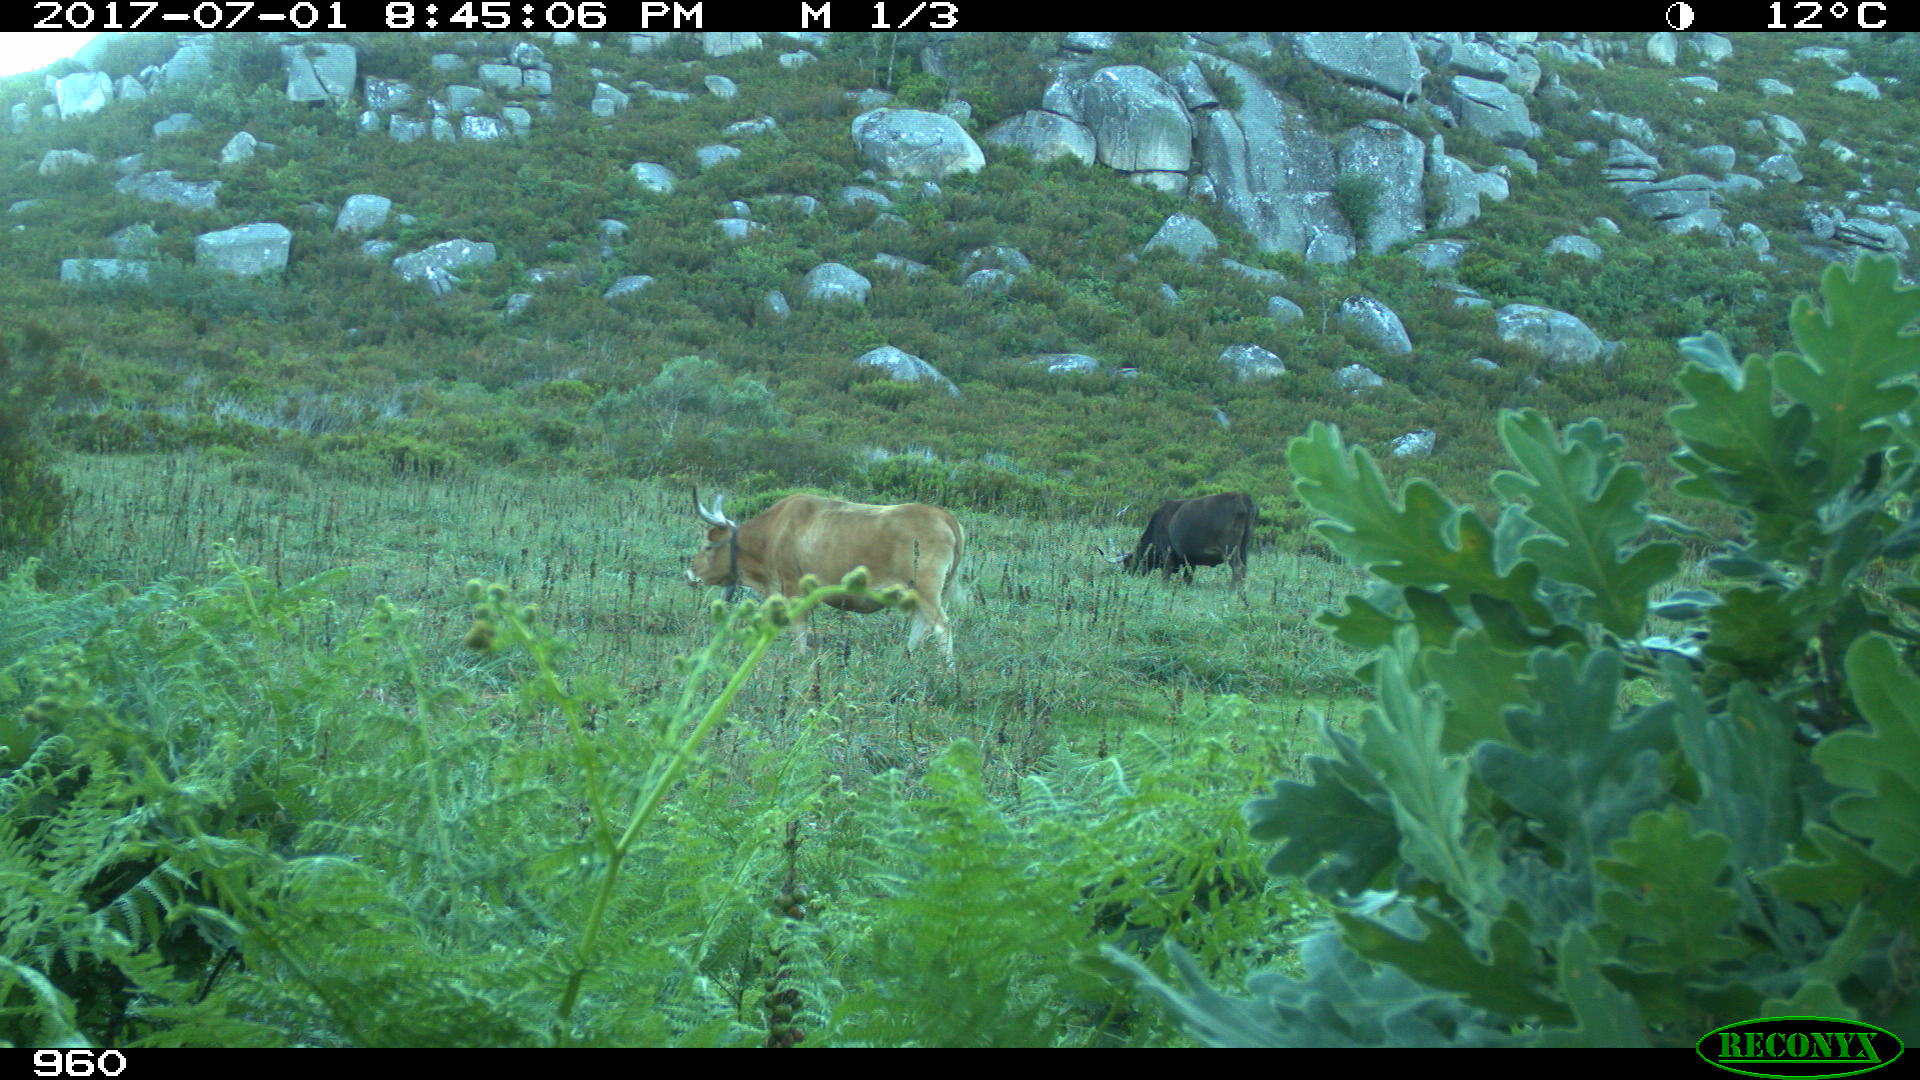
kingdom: Animalia
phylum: Chordata
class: Mammalia
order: Artiodactyla
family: Bovidae
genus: Bos
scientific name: Bos taurus
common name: Domesticated cattle
